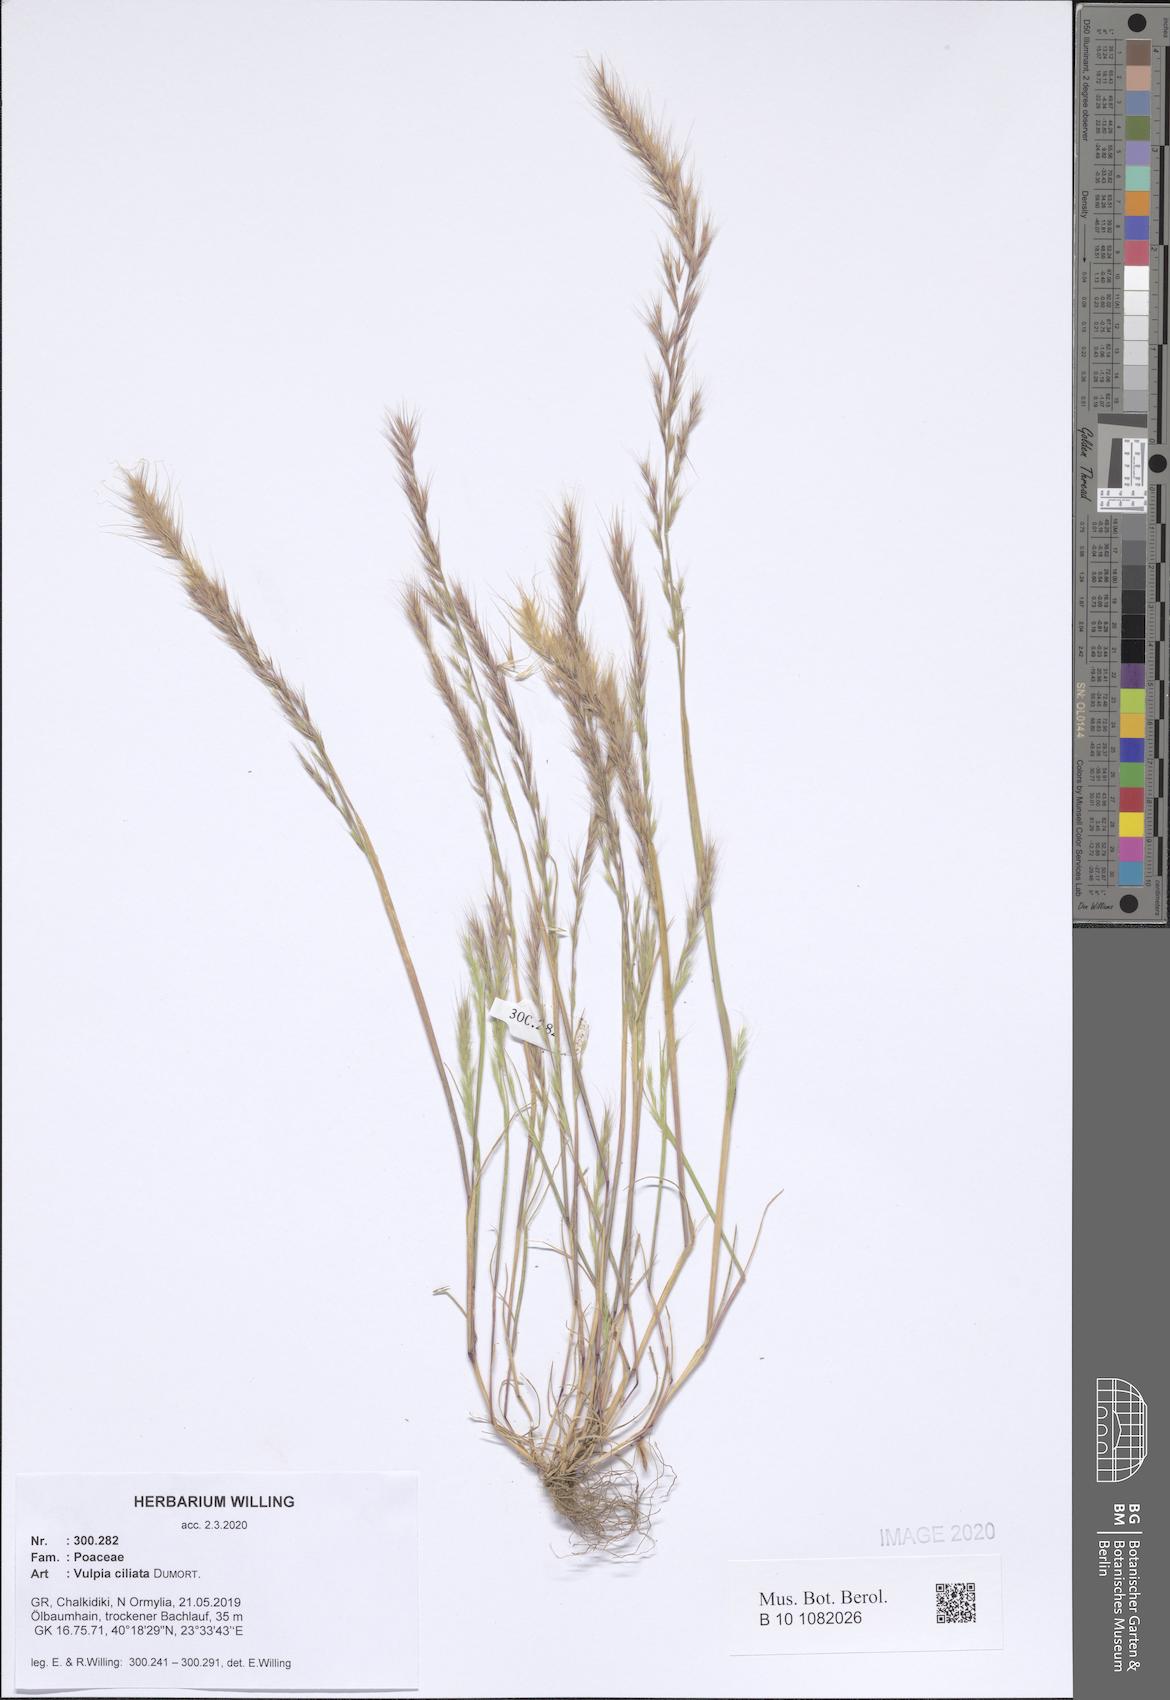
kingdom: Plantae
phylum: Tracheophyta
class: Liliopsida
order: Poales
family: Poaceae
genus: Festuca
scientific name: Festuca ambigua
